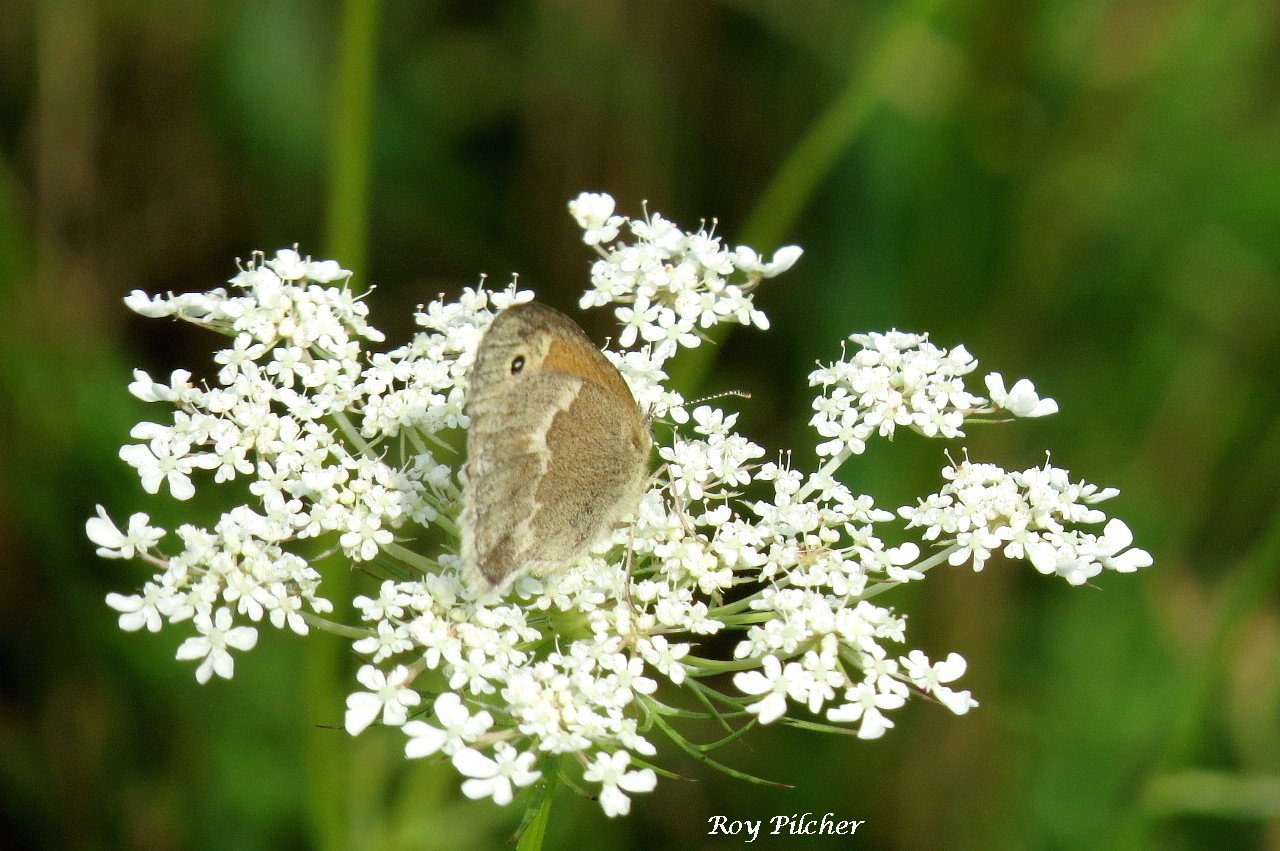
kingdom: Animalia
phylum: Arthropoda
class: Insecta
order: Lepidoptera
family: Nymphalidae
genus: Coenonympha
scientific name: Coenonympha tullia
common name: Large Heath
